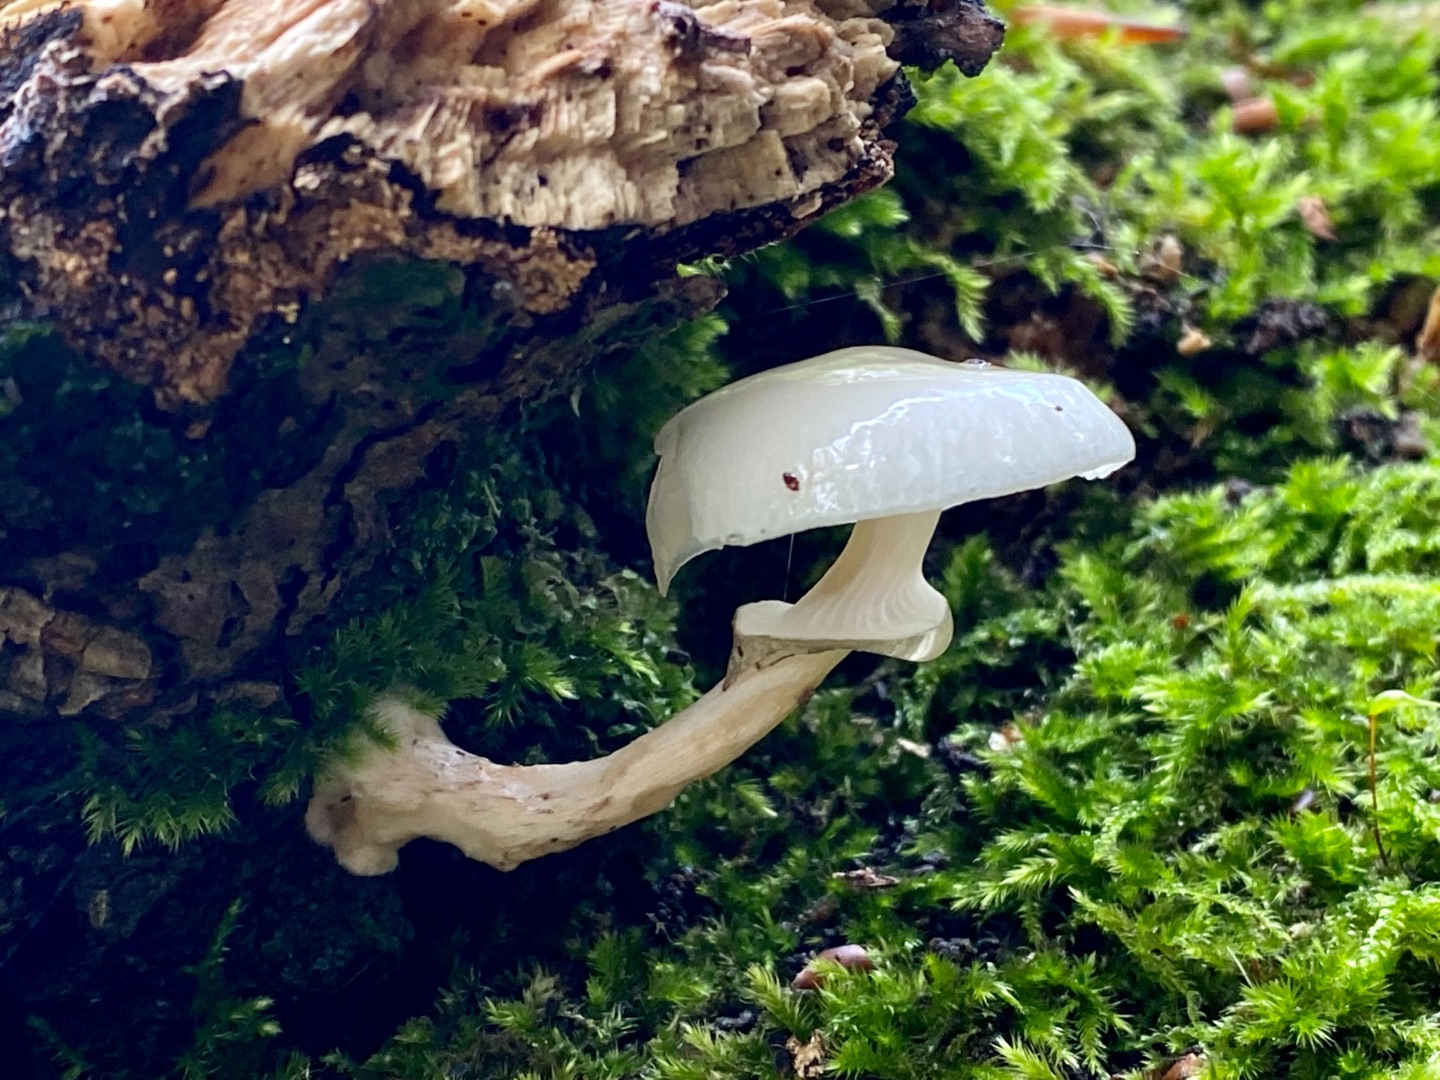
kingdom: Fungi
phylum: Basidiomycota
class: Agaricomycetes
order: Agaricales
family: Physalacriaceae
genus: Mucidula
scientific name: Mucidula mucida
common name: Porcelænshat
